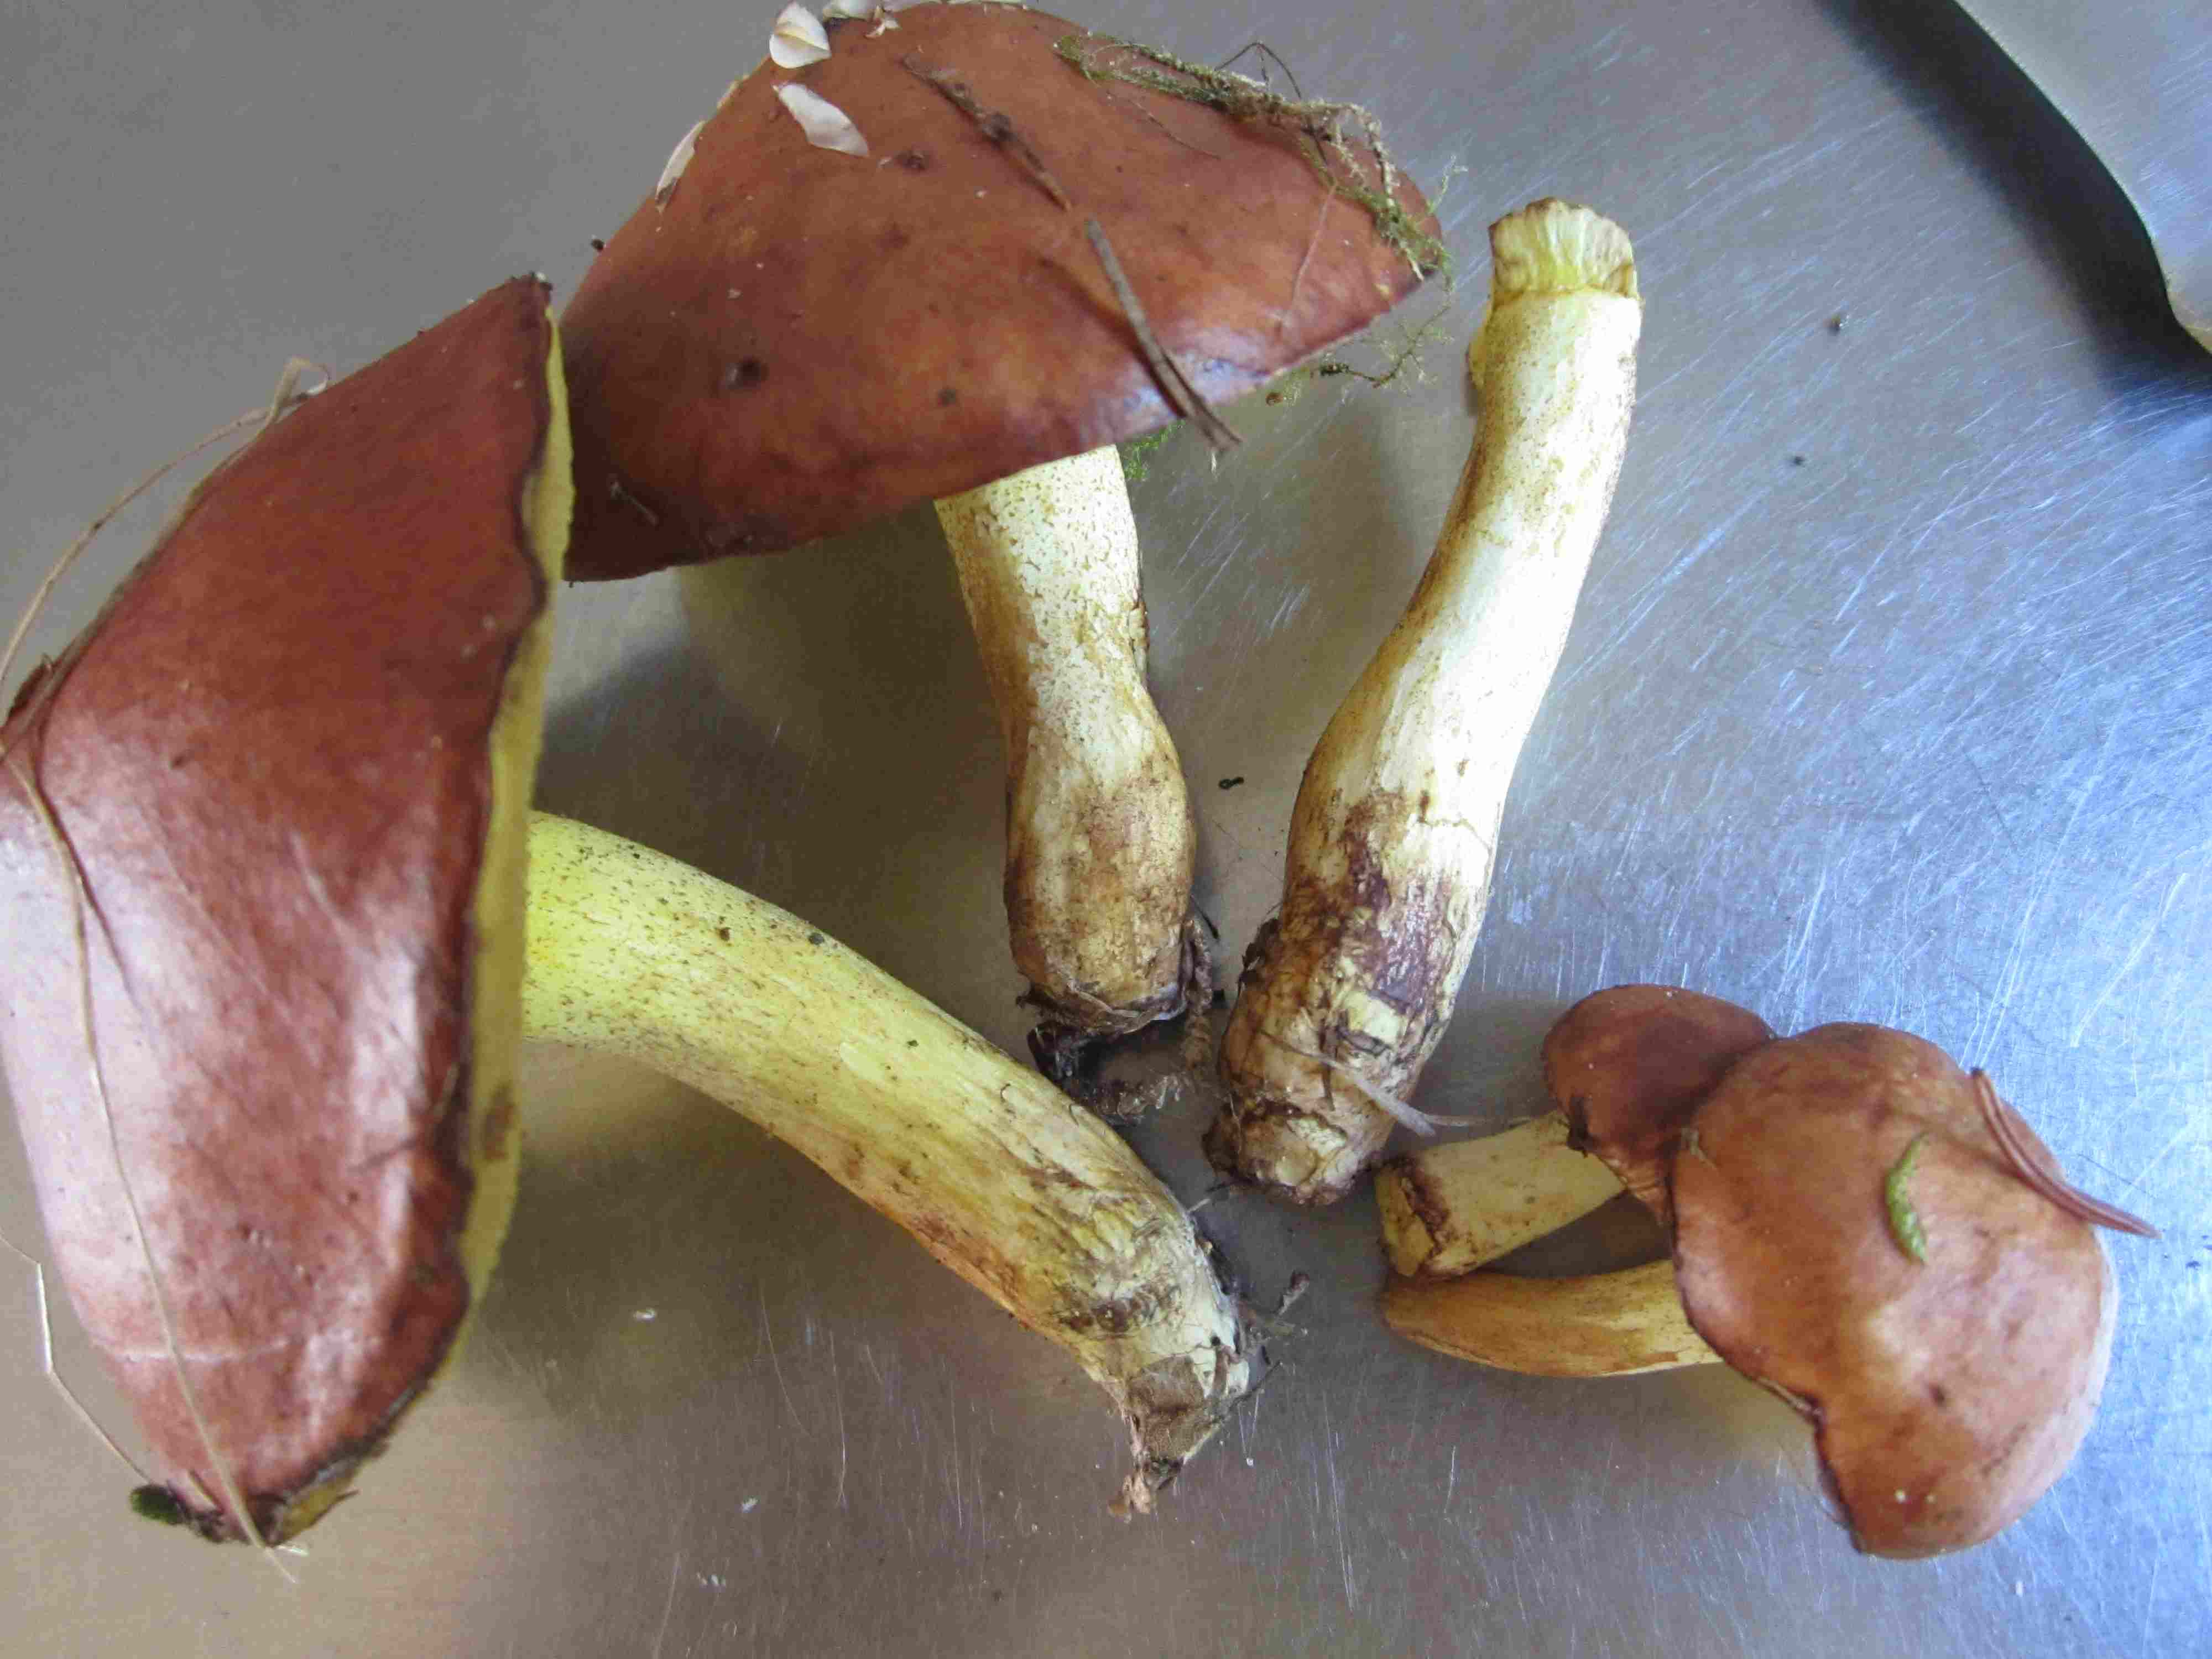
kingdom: Fungi
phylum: Basidiomycota
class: Agaricomycetes
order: Boletales
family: Suillaceae
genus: Suillus
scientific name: Suillus granulatus
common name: kornet slimrørhat
